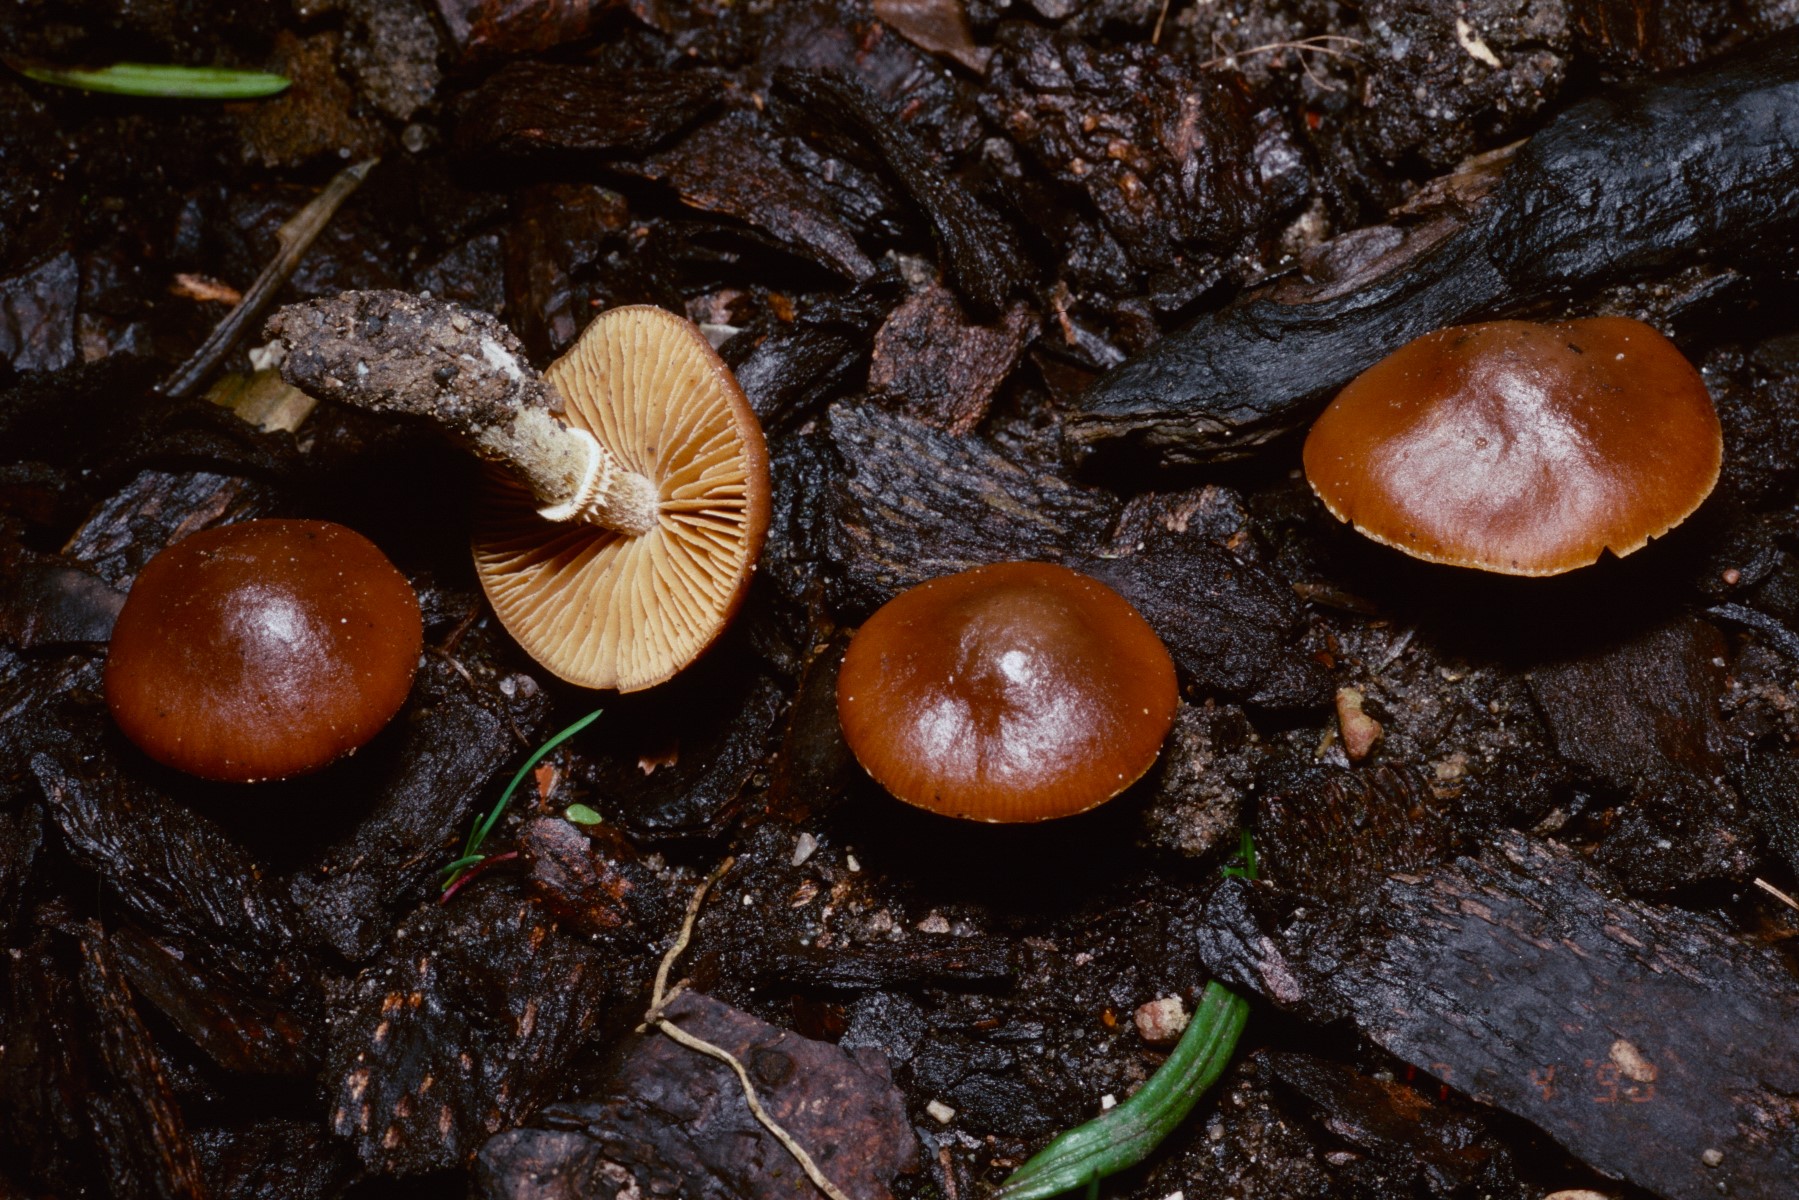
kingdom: Fungi
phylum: Basidiomycota
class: Agaricomycetes
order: Agaricales
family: Bolbitiaceae
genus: Conocybe
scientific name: Conocybe aporos
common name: tidlig dansehat
